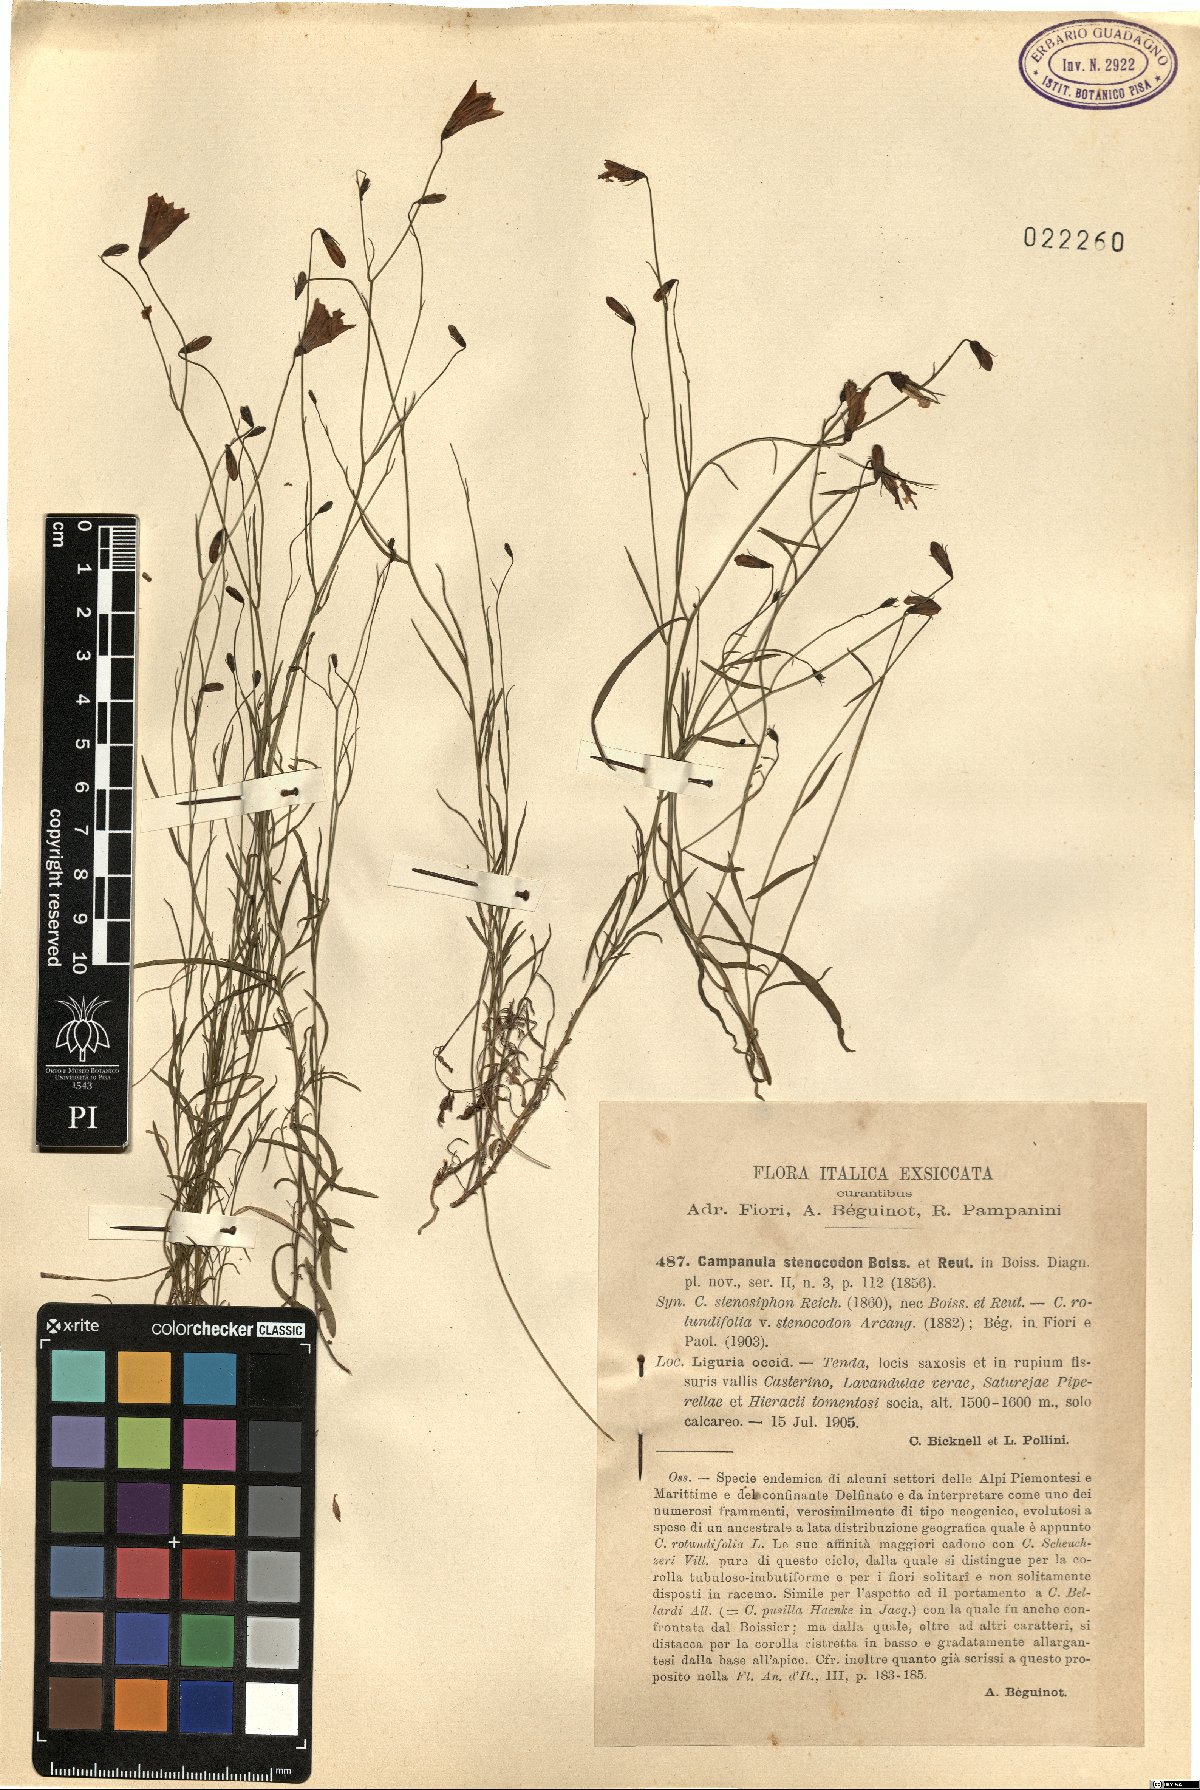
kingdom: Plantae
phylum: Tracheophyta
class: Magnoliopsida
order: Asterales
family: Campanulaceae
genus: Campanula
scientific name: Campanula stenocodon
